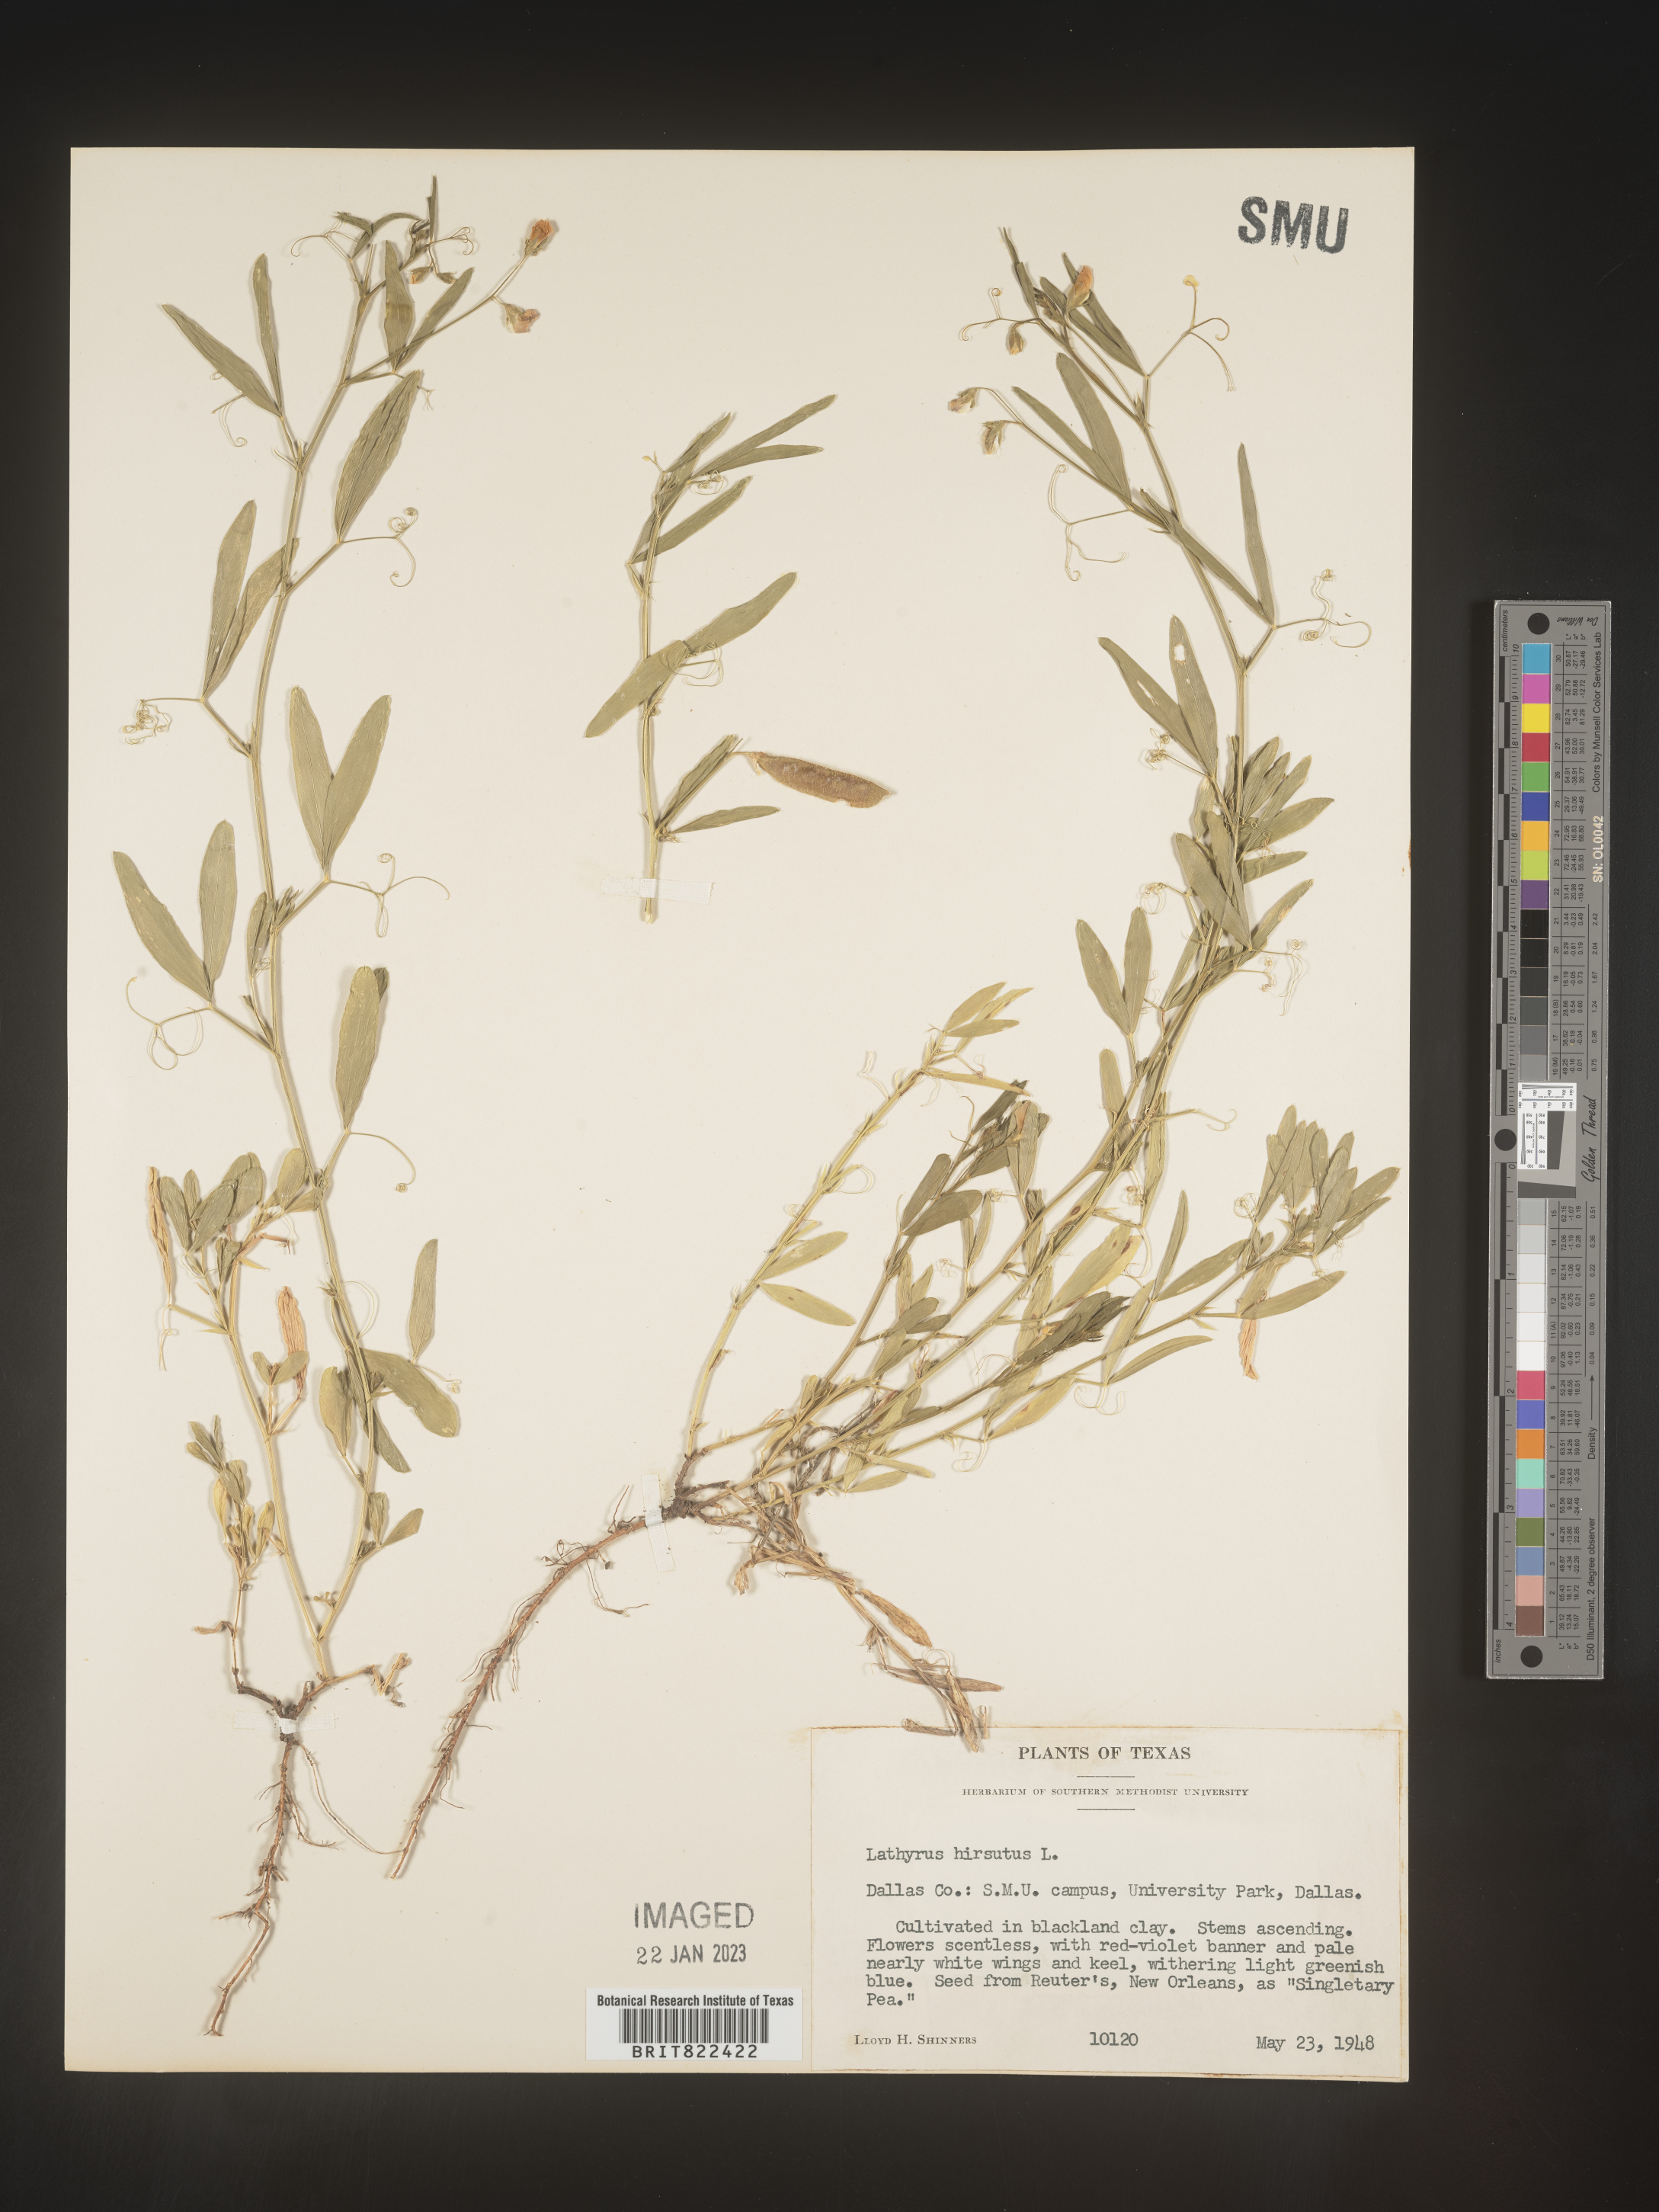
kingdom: Plantae
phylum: Tracheophyta
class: Magnoliopsida
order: Fabales
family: Fabaceae
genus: Lathyrus
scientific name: Lathyrus
